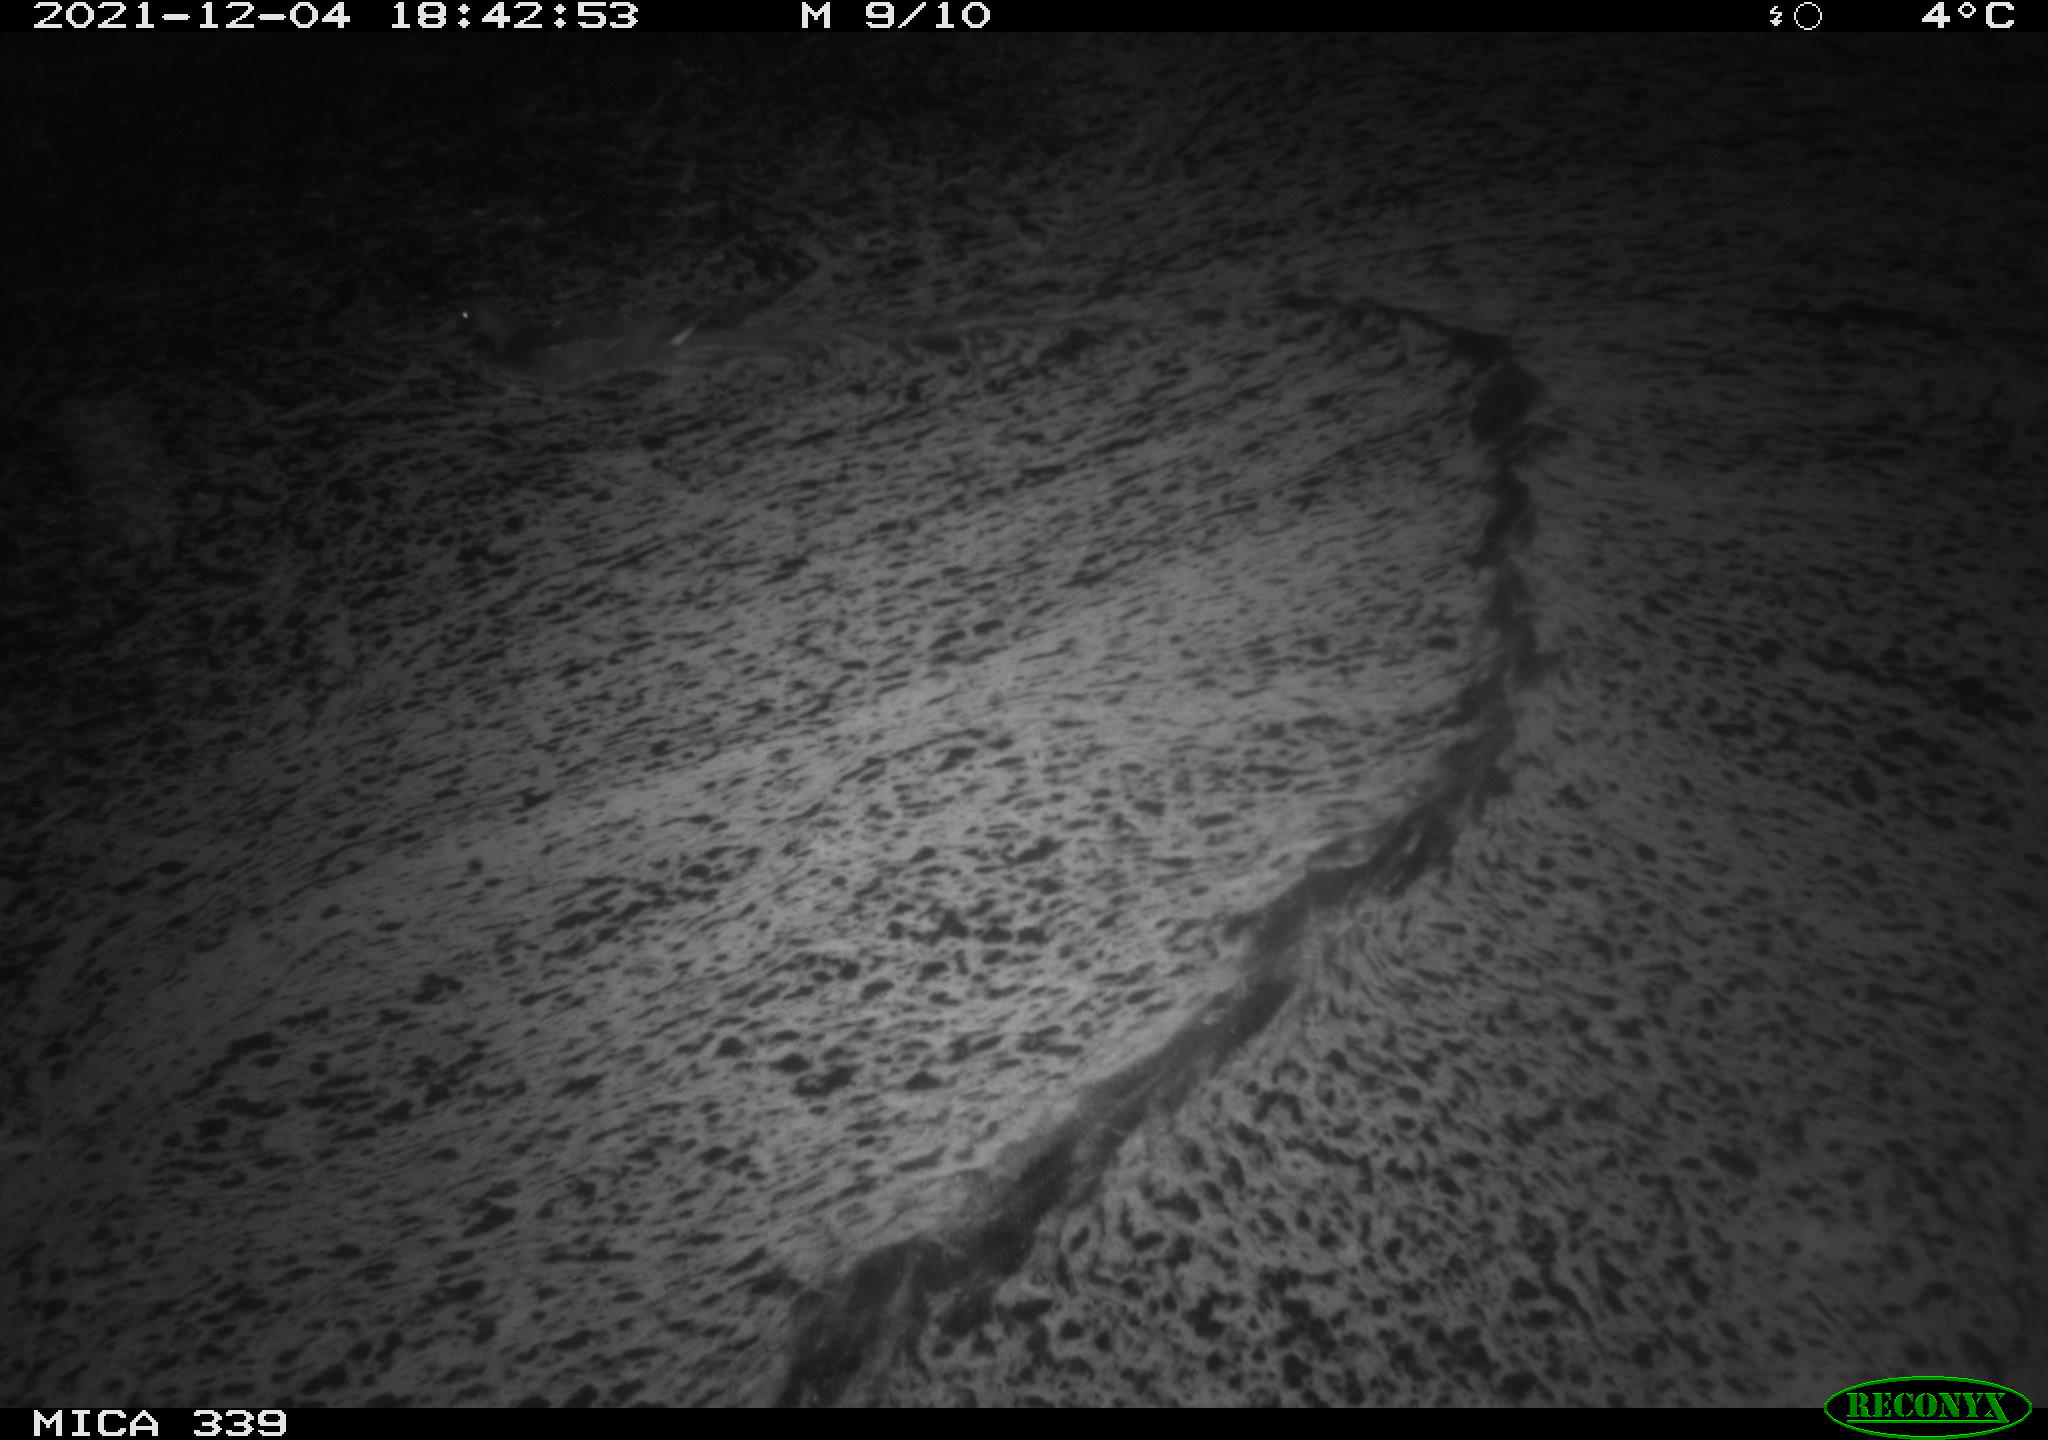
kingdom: Animalia
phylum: Chordata
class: Aves
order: Gruiformes
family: Rallidae
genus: Gallinula
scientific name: Gallinula chloropus
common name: Common moorhen
